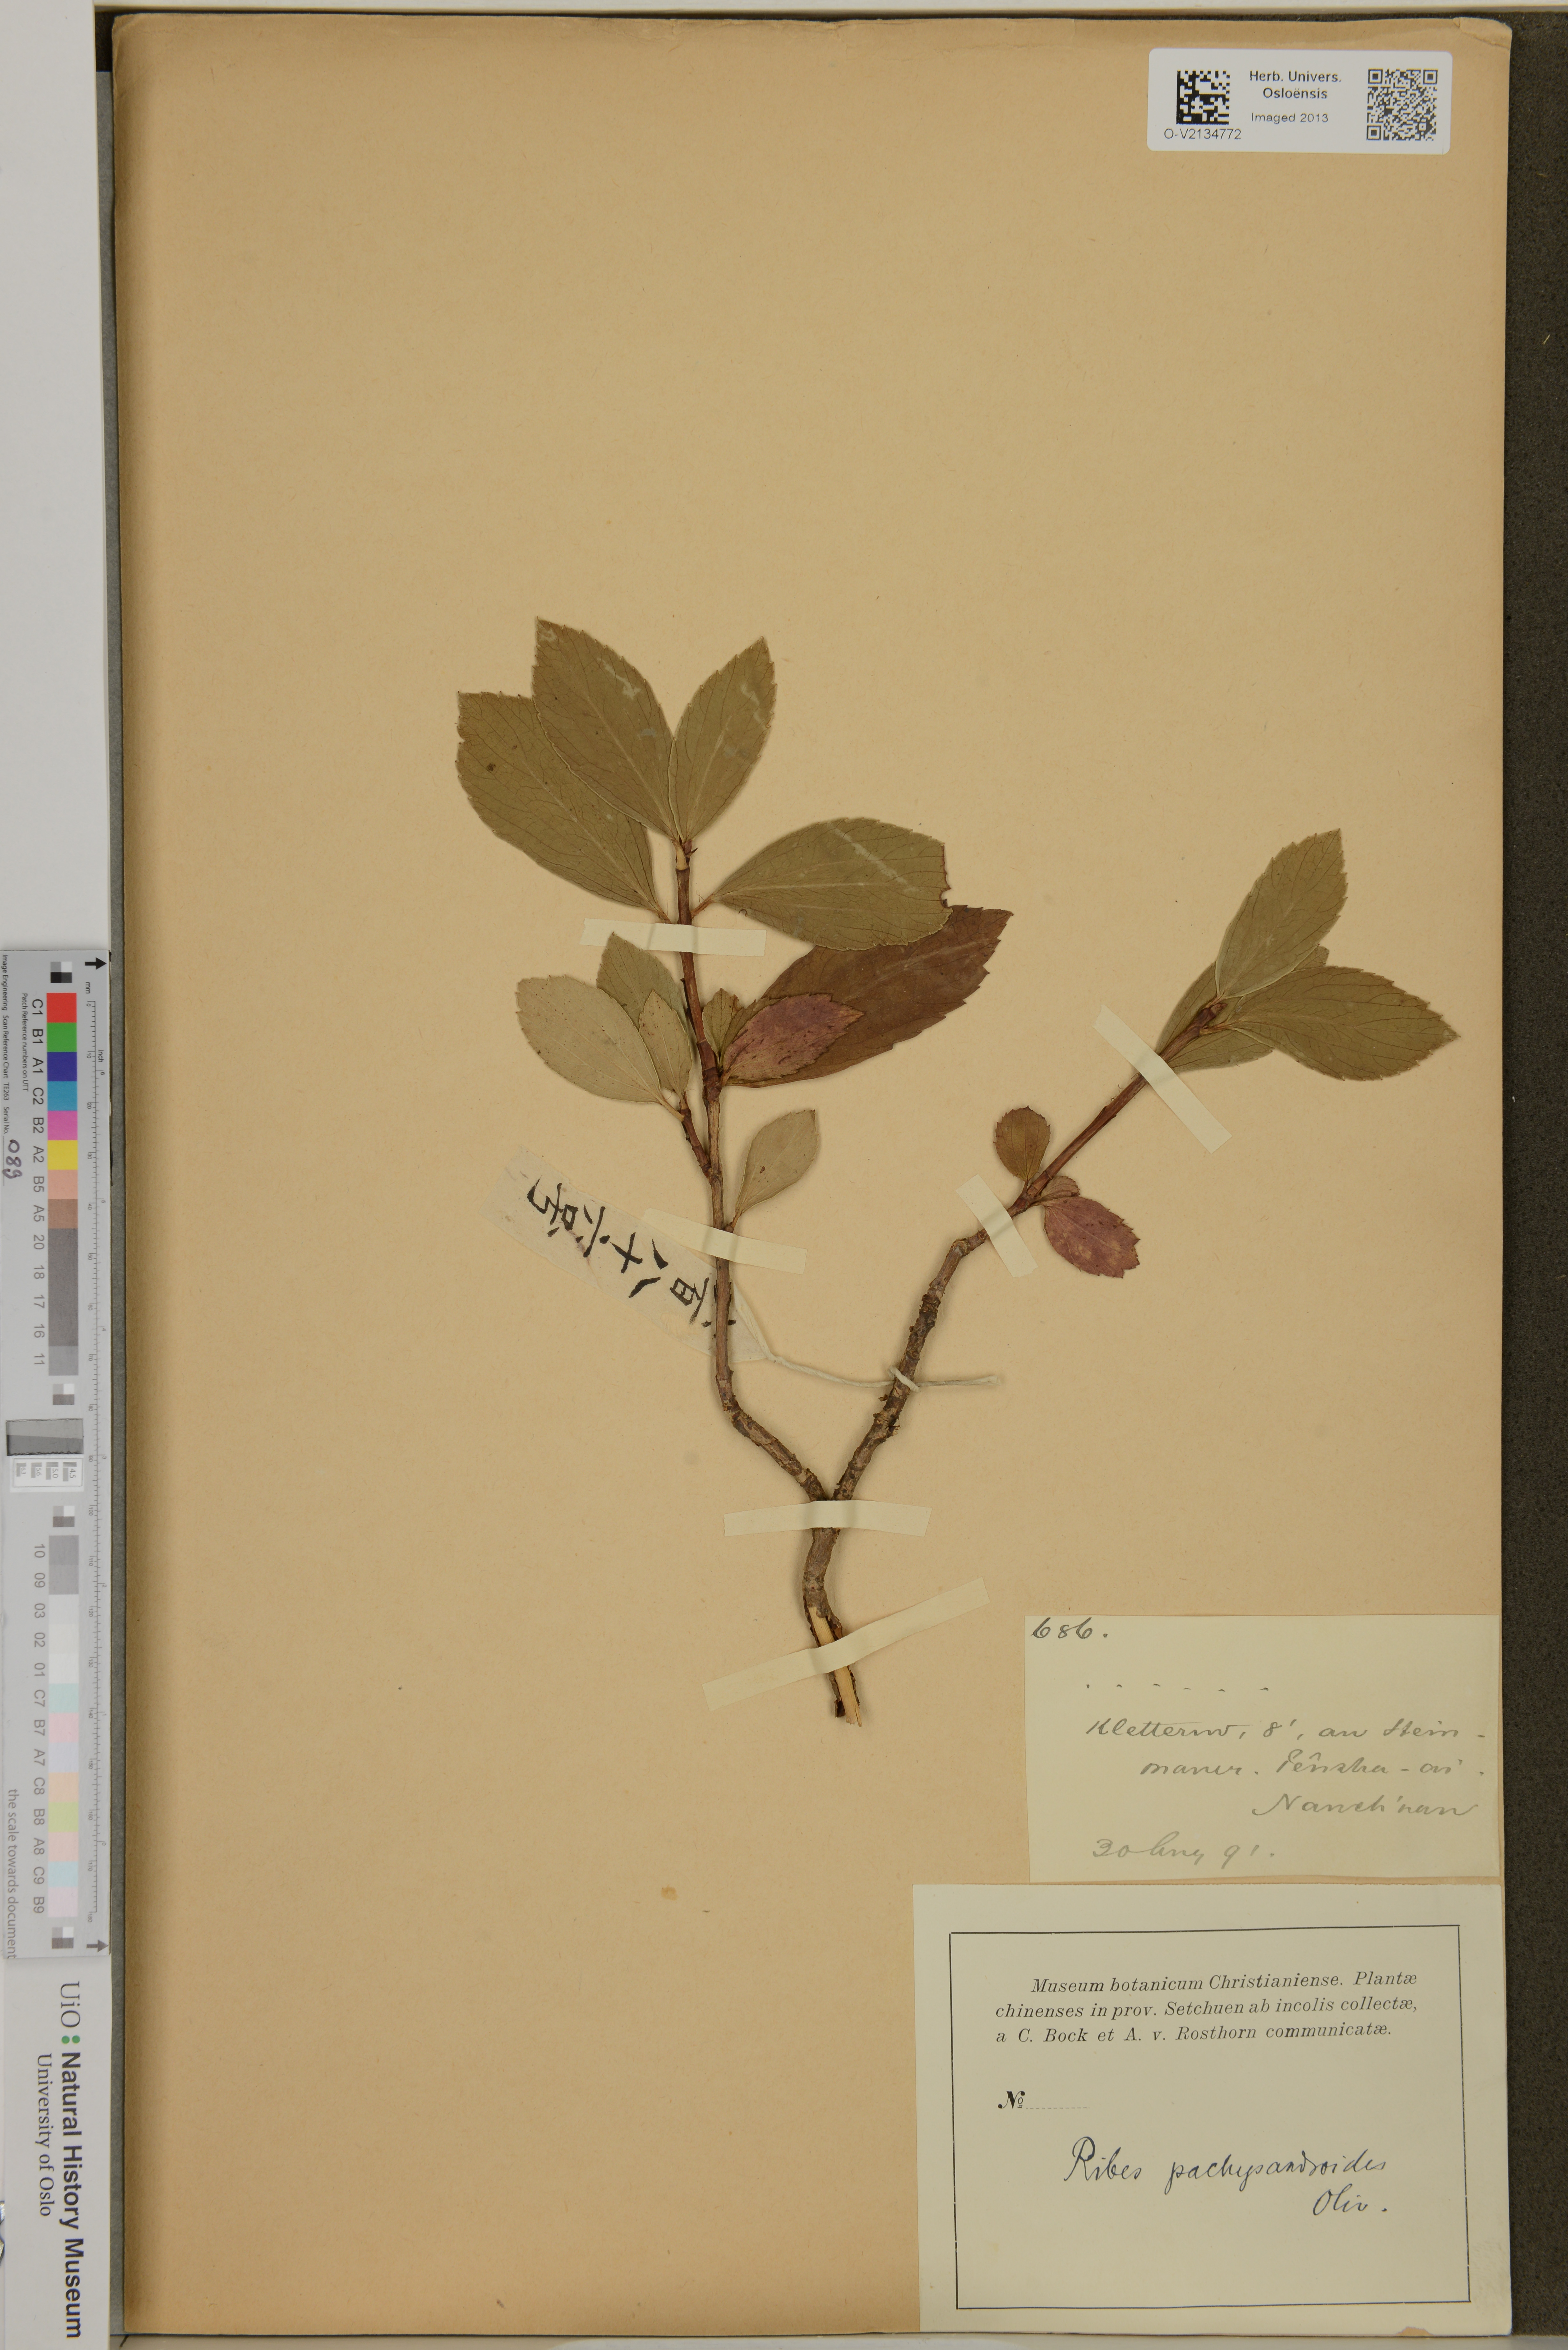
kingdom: Plantae
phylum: Tracheophyta
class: Magnoliopsida
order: Saxifragales
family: Grossulariaceae
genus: Ribes
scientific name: Ribes davidii
